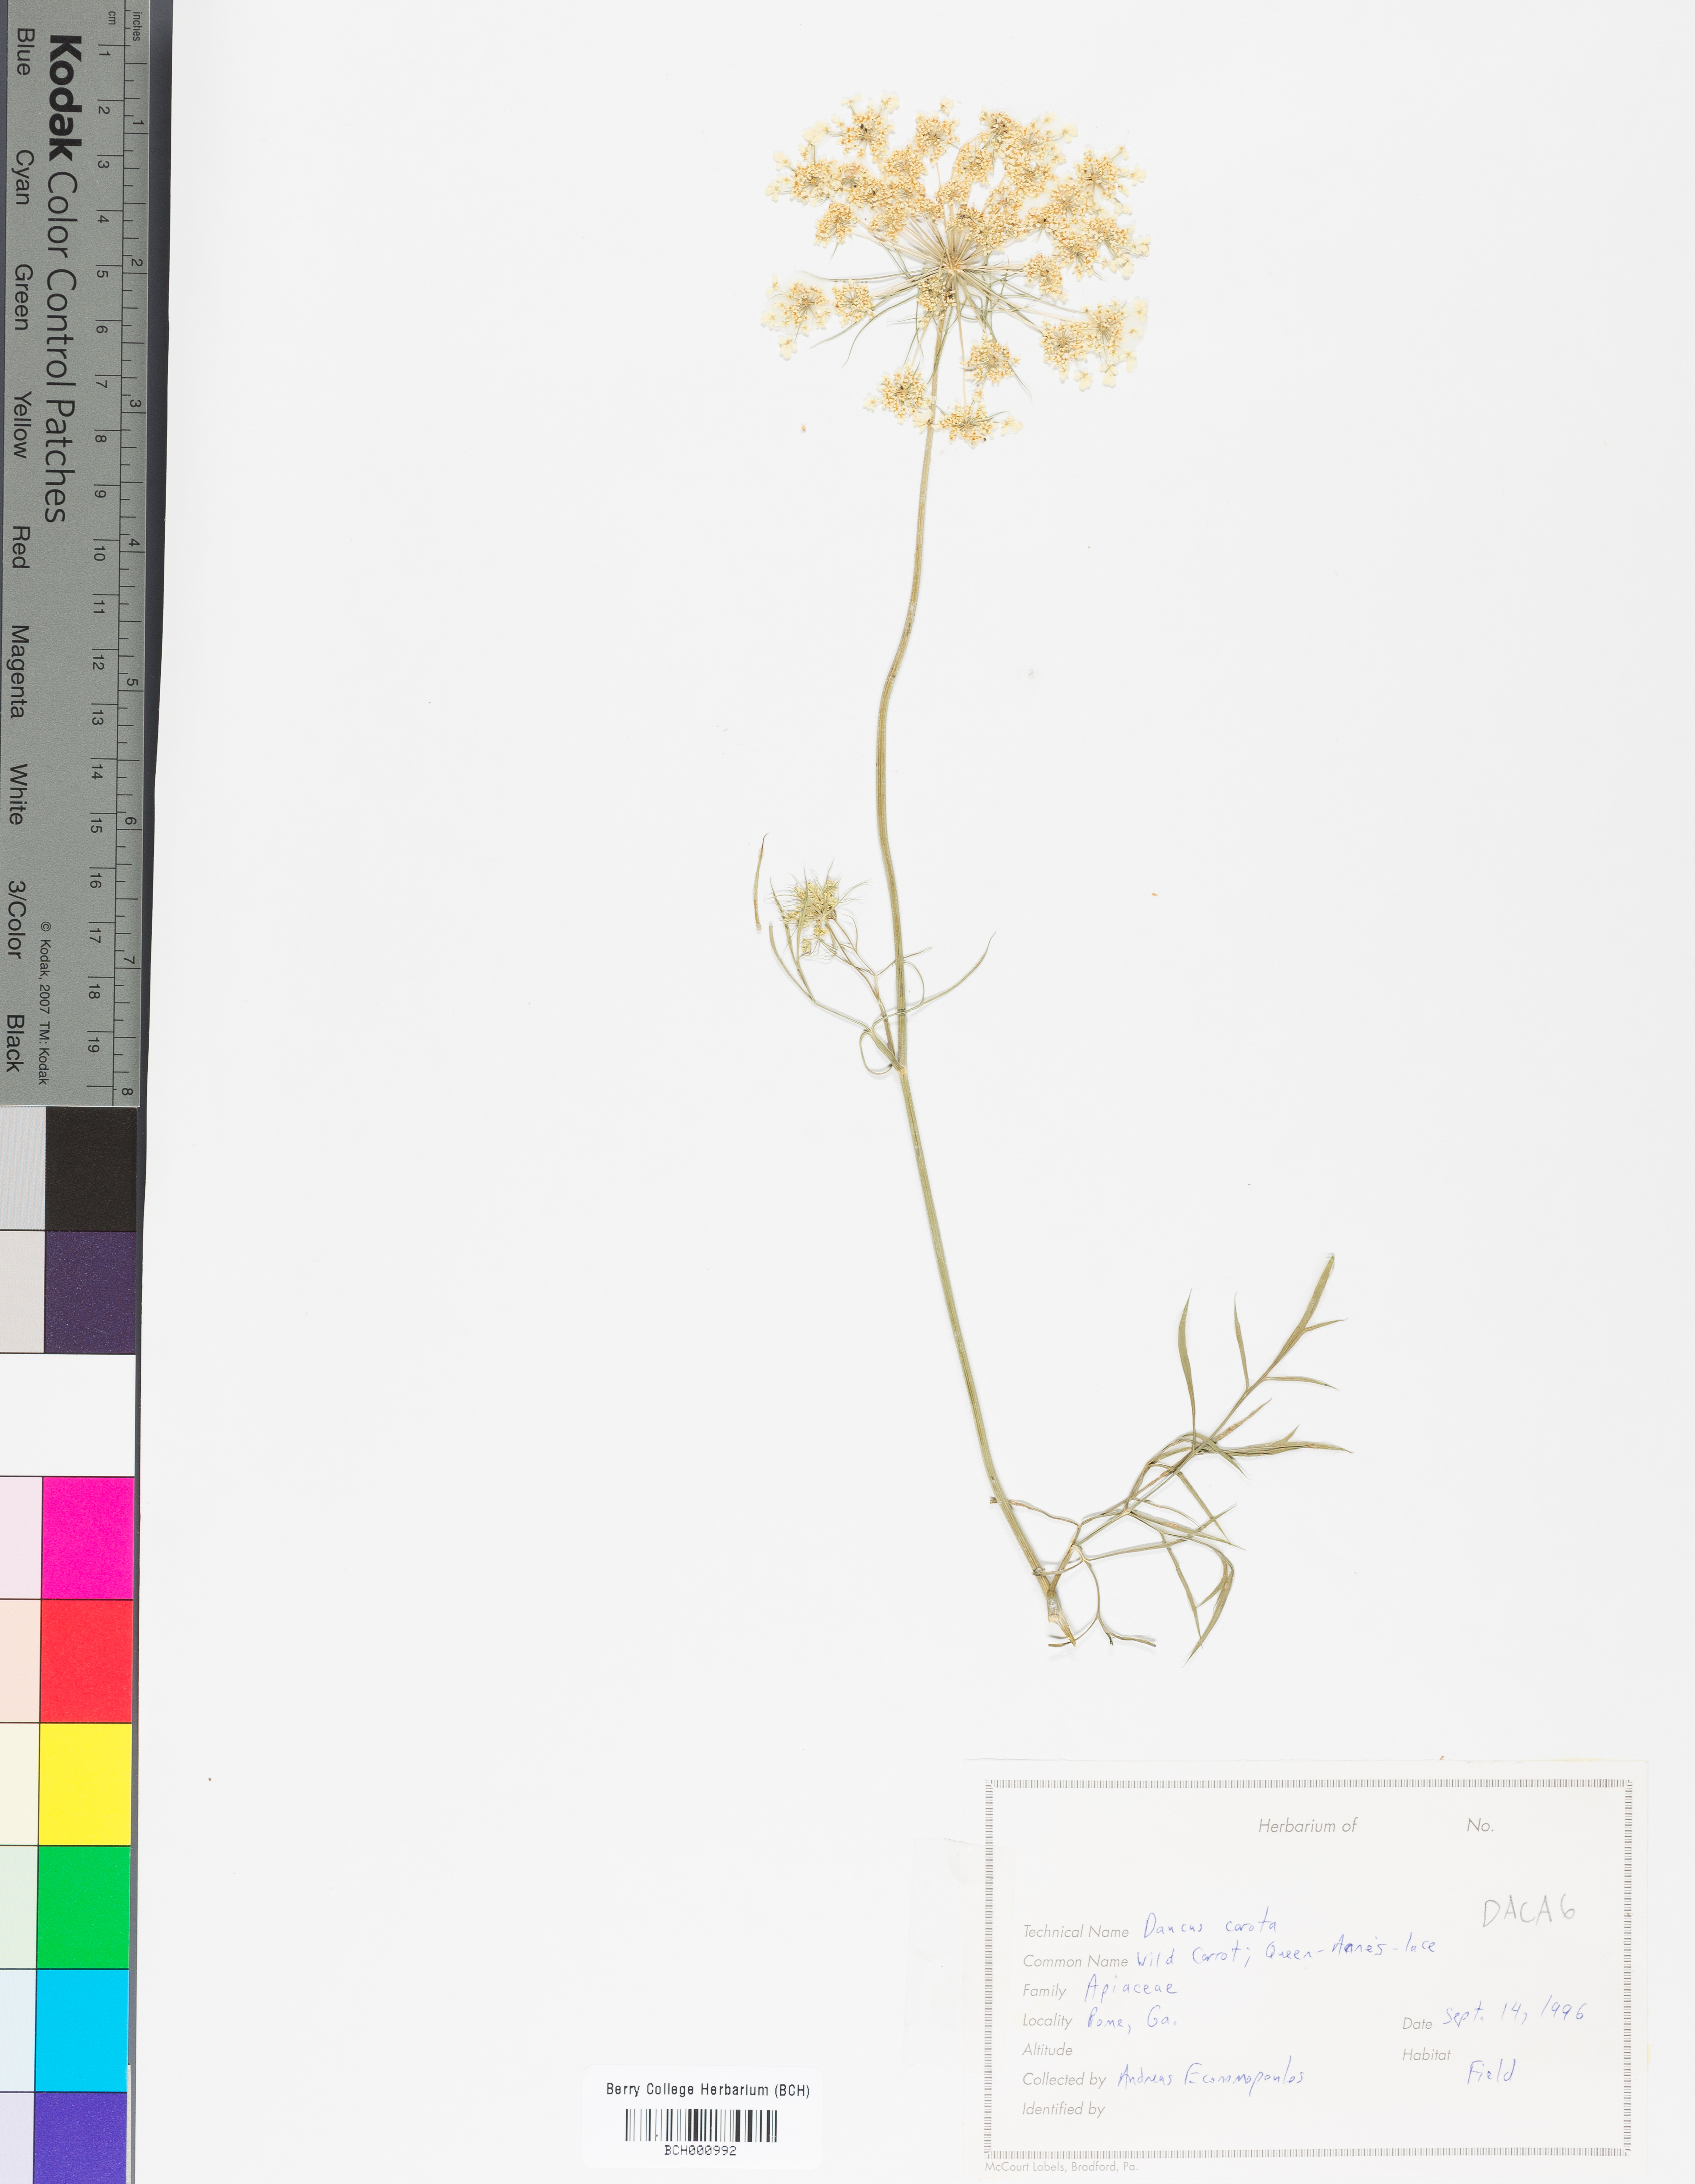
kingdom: Plantae
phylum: Tracheophyta
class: Magnoliopsida
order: Apiales
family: Apiaceae
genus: Daucus
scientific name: Daucus carota
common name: Wild carrot
